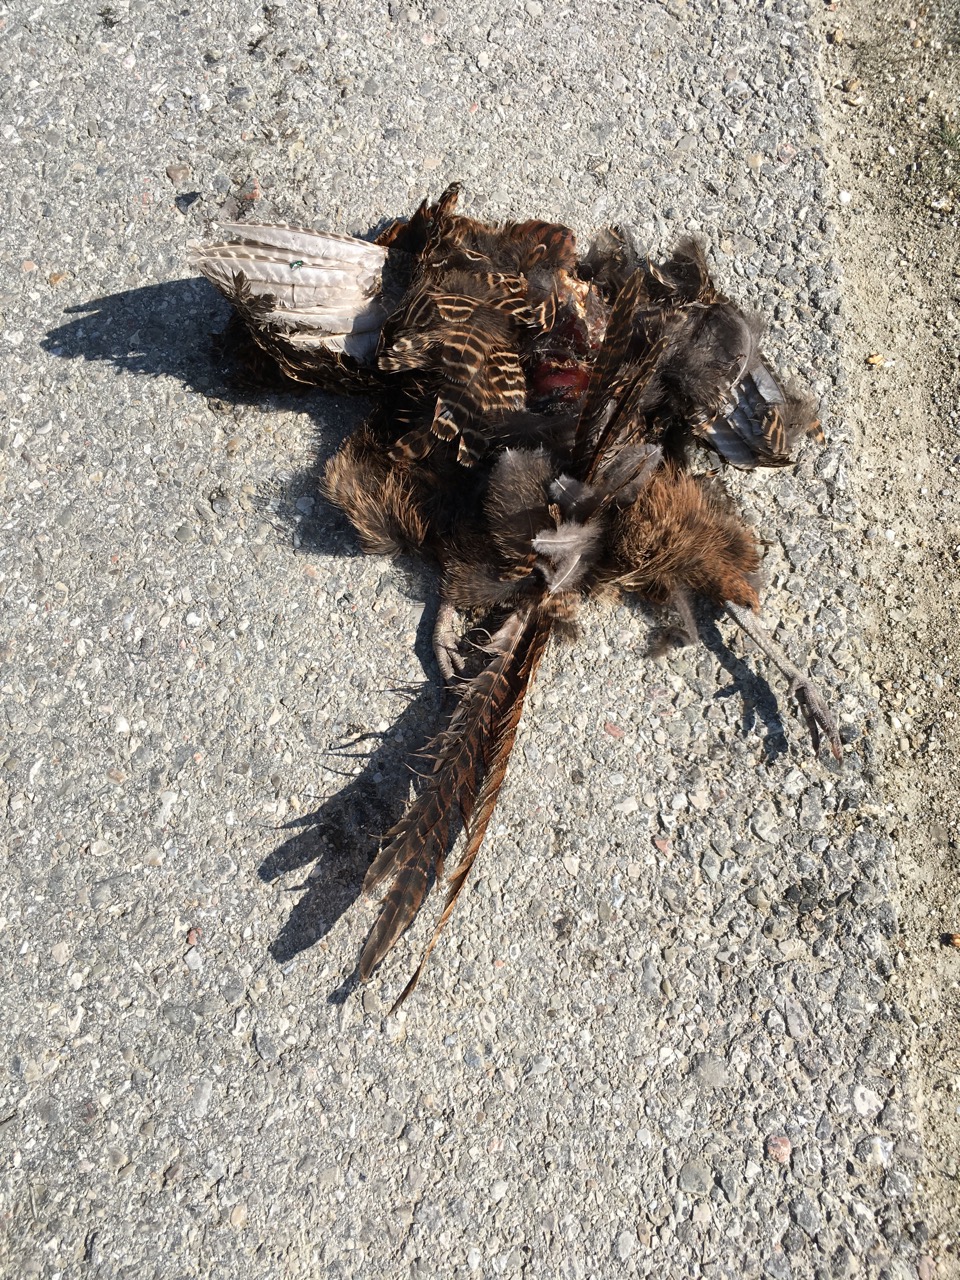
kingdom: Animalia
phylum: Chordata
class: Aves
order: Galliformes
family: Phasianidae
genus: Phasianus
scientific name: Phasianus colchicus
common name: Common pheasant
